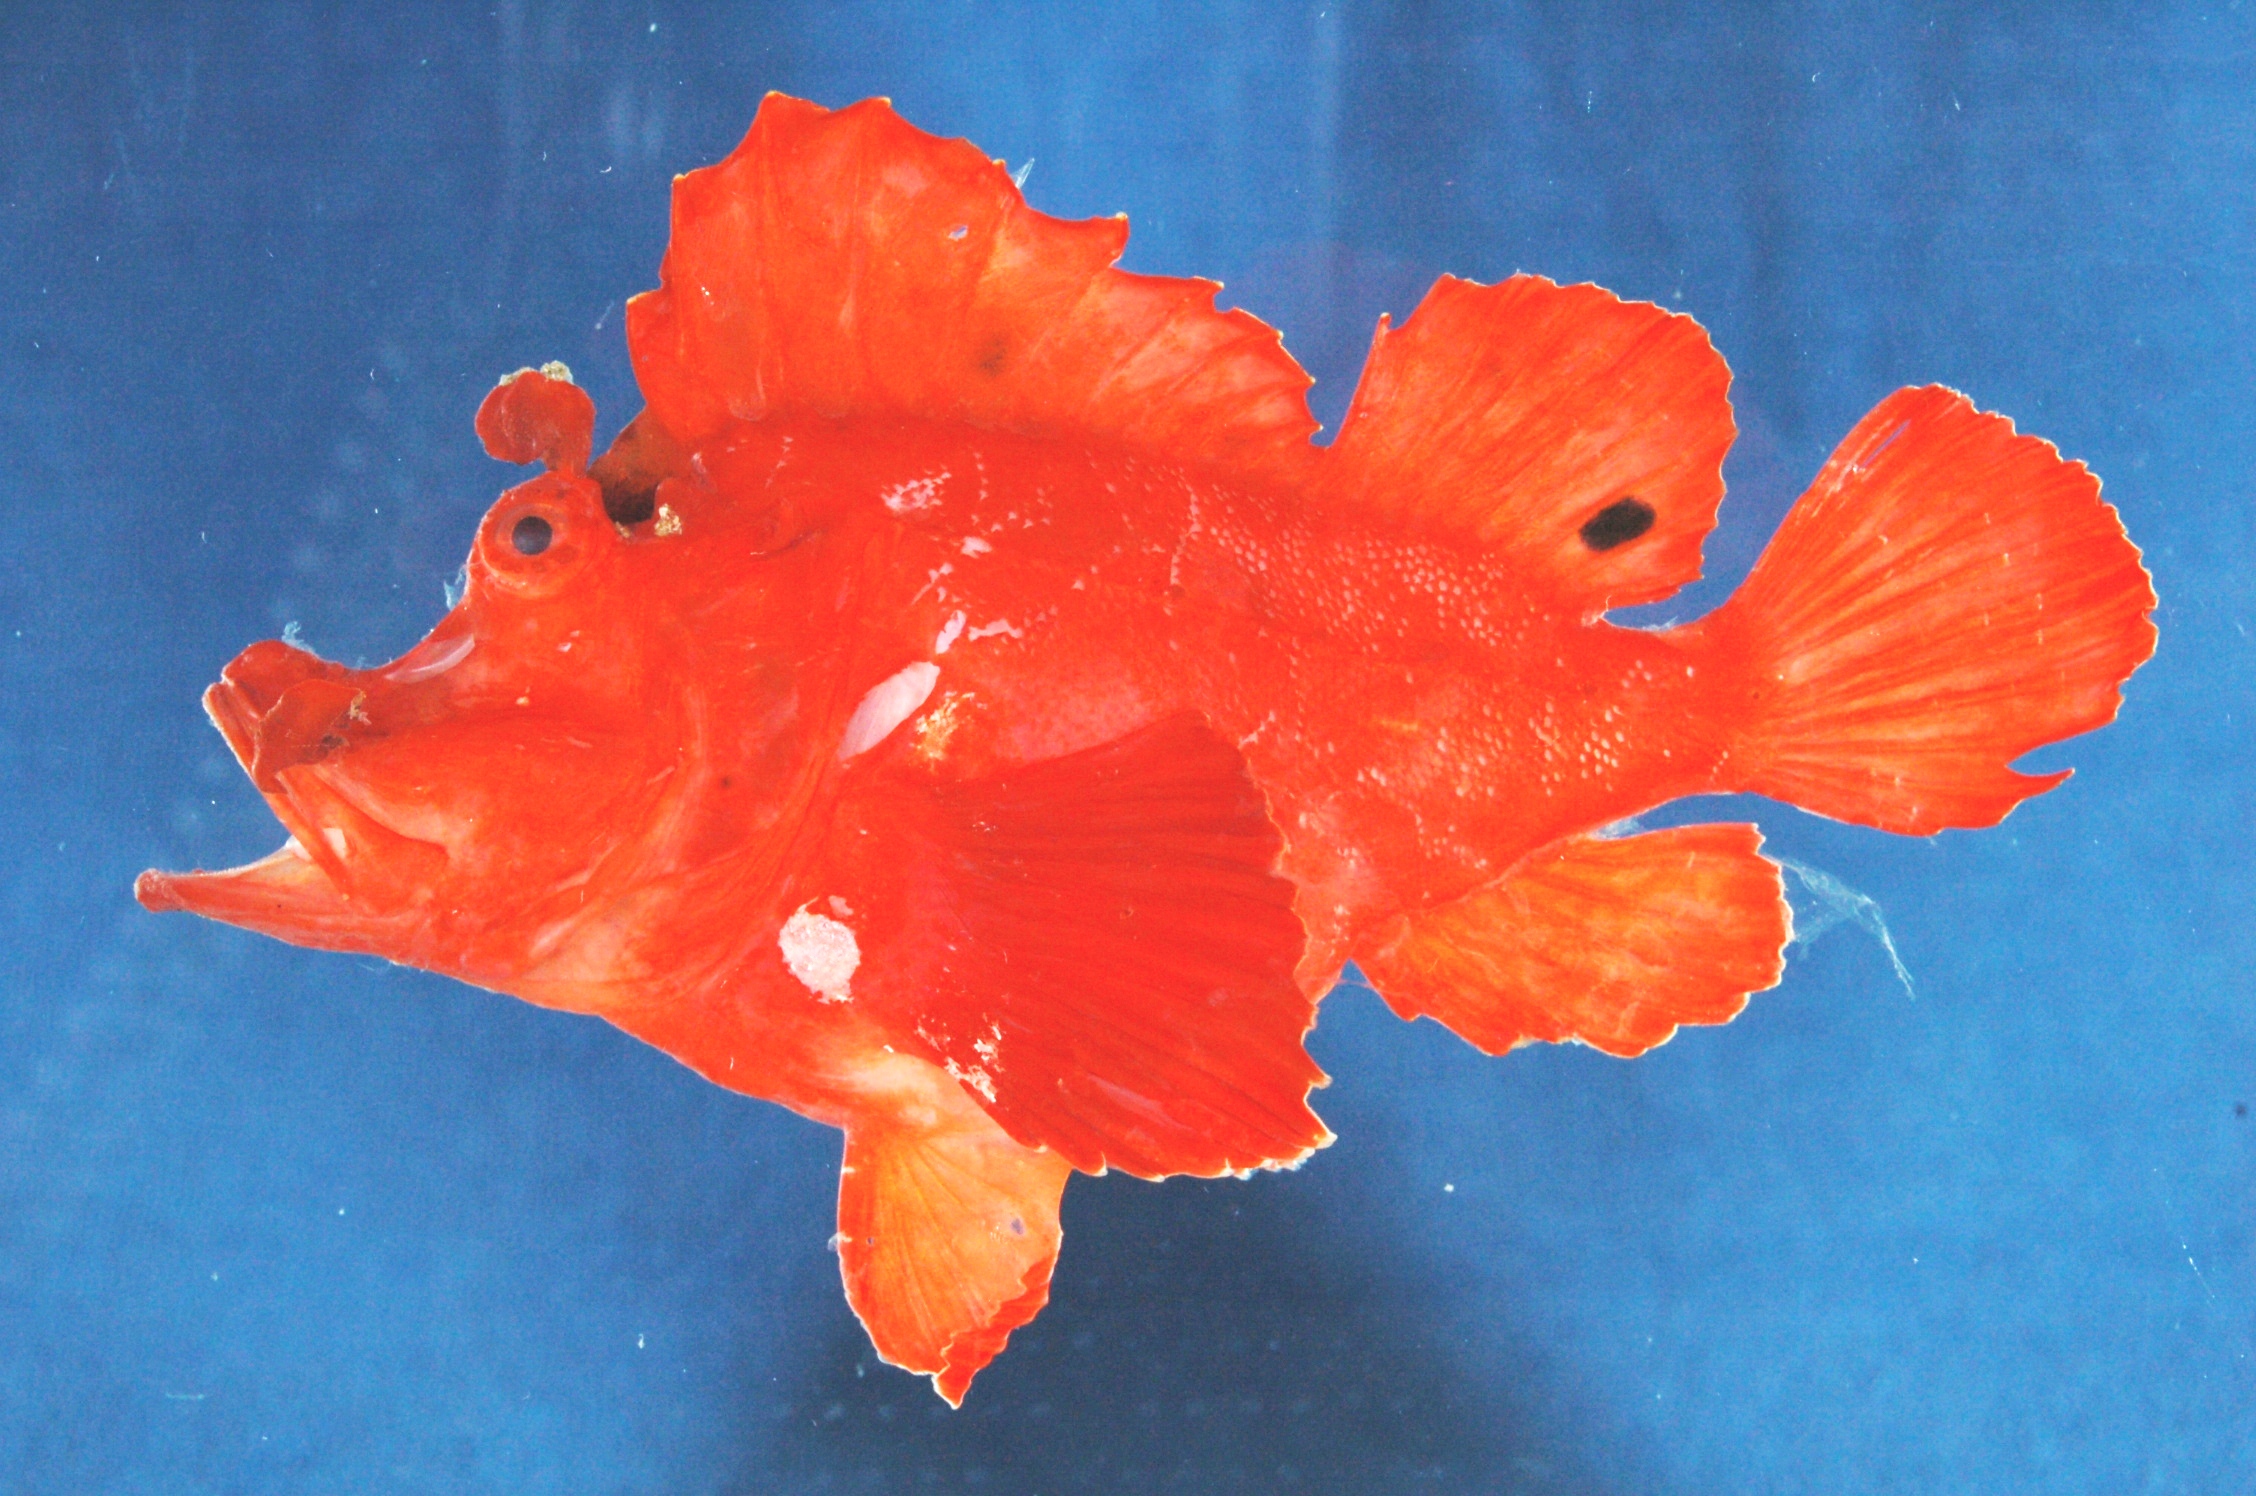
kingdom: Animalia
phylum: Chordata
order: Scorpaeniformes
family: Scorpaenidae
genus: Rhinopias
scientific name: Rhinopias eschmeyeri
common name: Eschmeyer's scorpionfish
